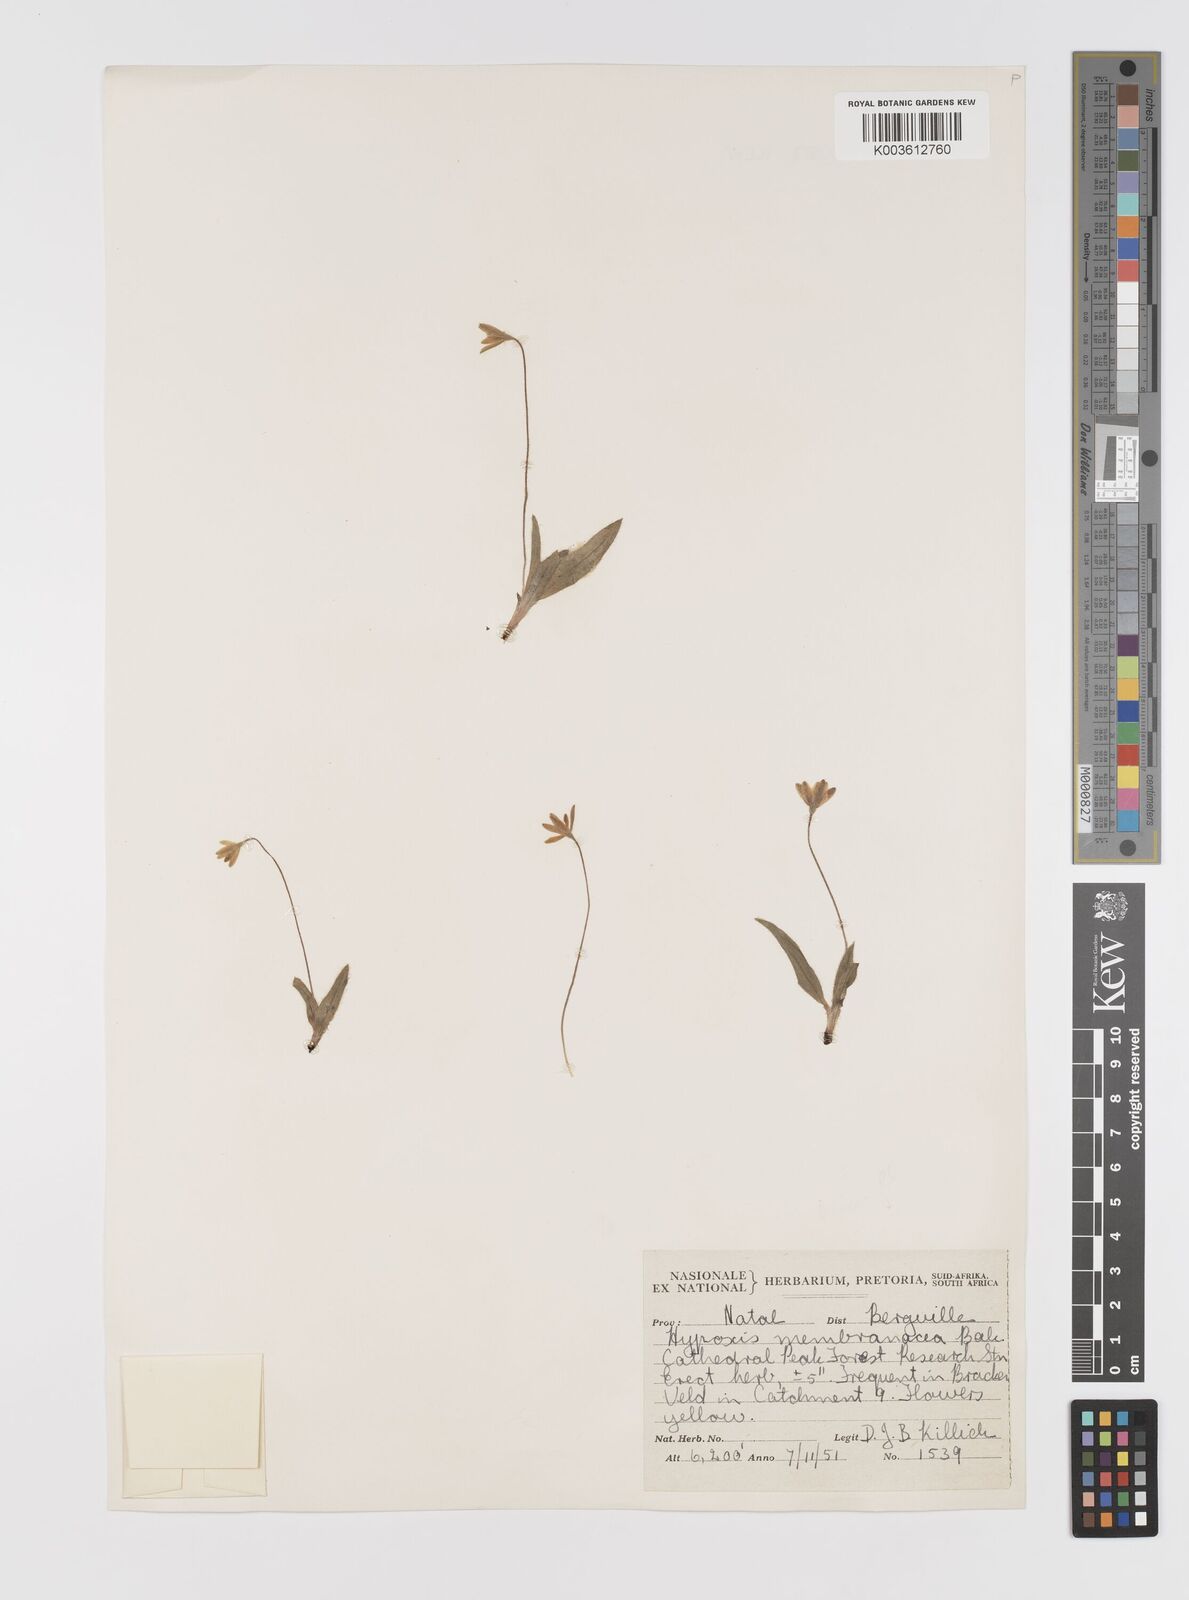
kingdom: Plantae
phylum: Tracheophyta
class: Liliopsida
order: Asparagales
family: Hypoxidaceae
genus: Hypoxis
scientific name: Hypoxis parvula
